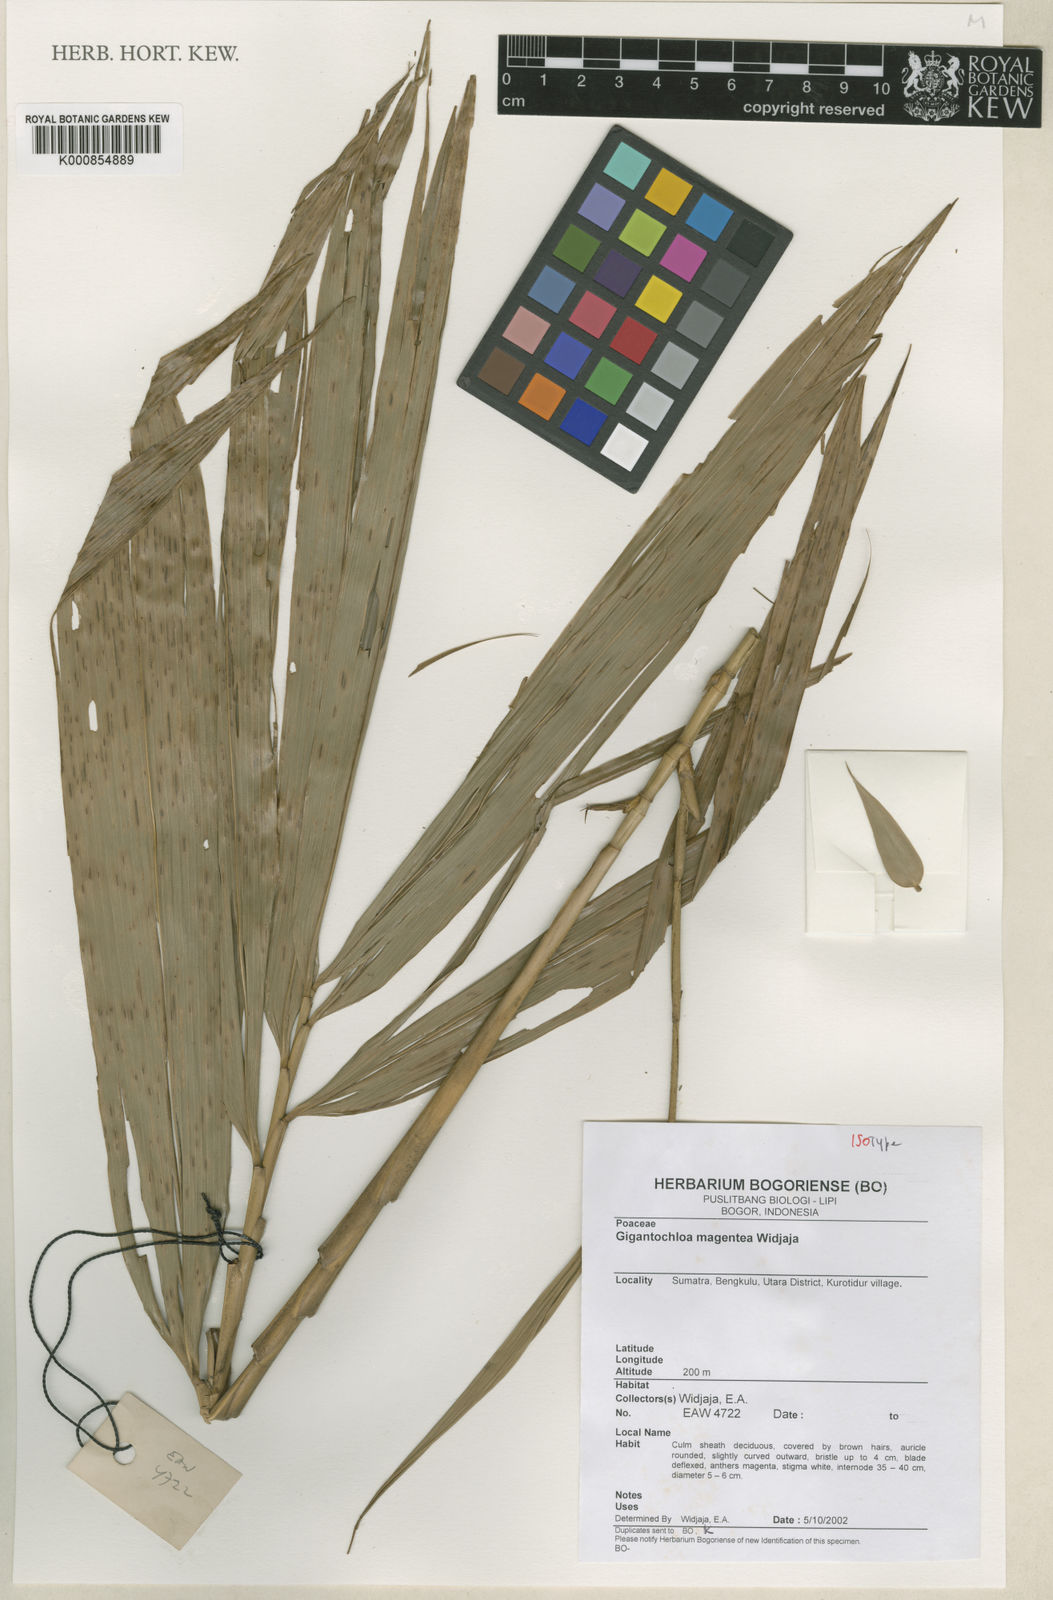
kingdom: Plantae
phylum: Tracheophyta
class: Liliopsida
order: Poales
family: Poaceae
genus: Gigantochloa
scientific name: Gigantochloa magentea
